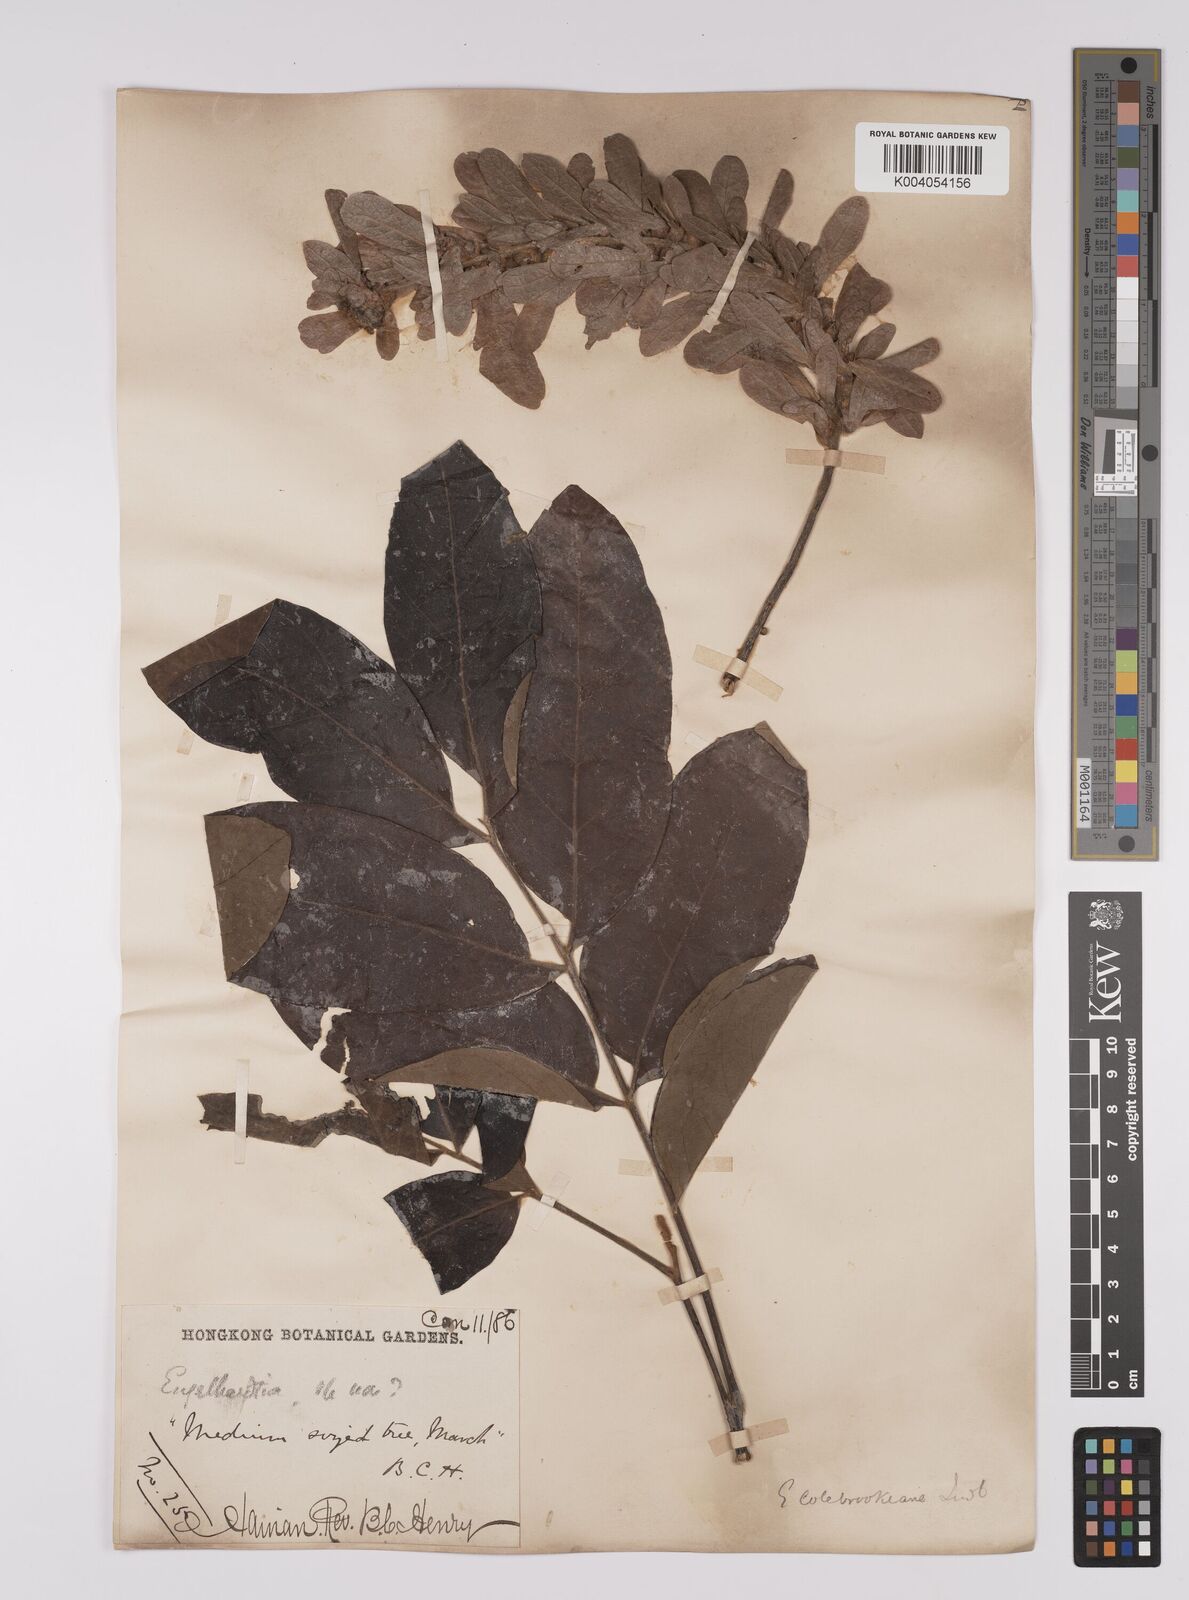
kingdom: Plantae
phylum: Tracheophyta
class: Magnoliopsida
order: Fagales
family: Juglandaceae
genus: Engelhardia
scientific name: Engelhardia spicata
